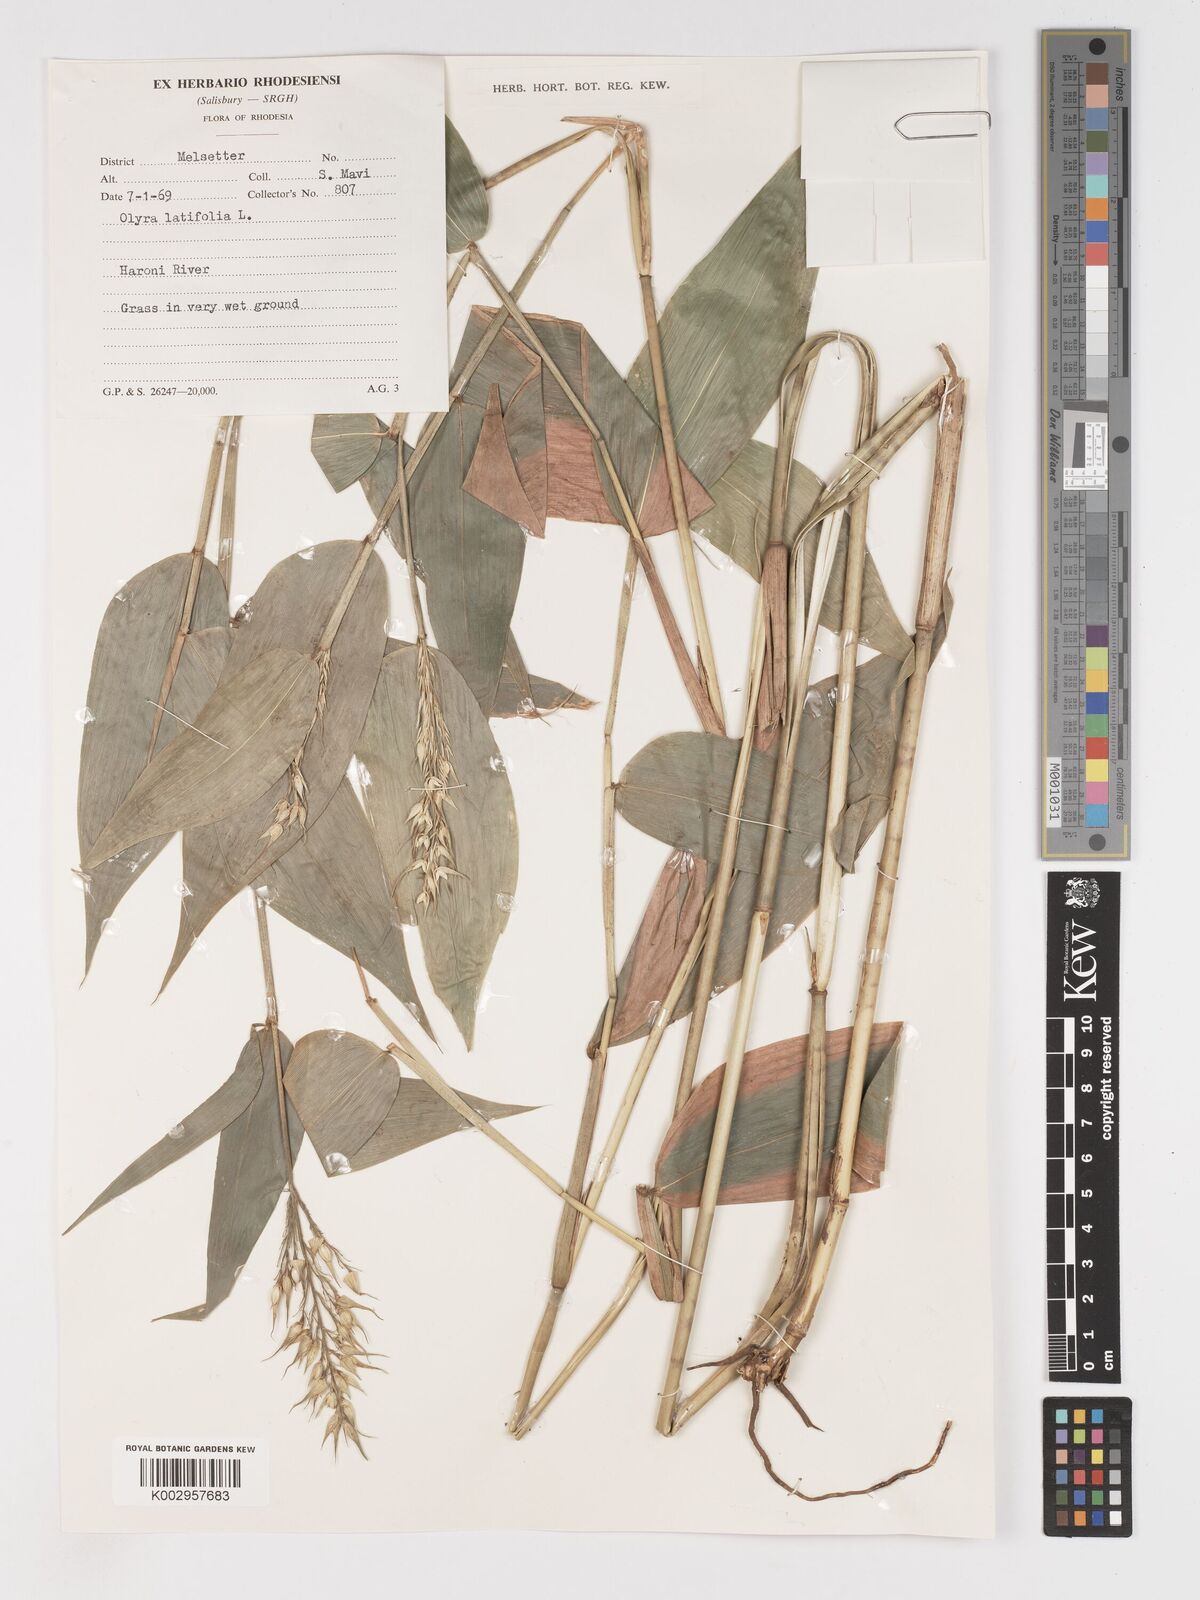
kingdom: Plantae
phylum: Tracheophyta
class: Liliopsida
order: Poales
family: Poaceae
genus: Olyra
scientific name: Olyra latifolia
